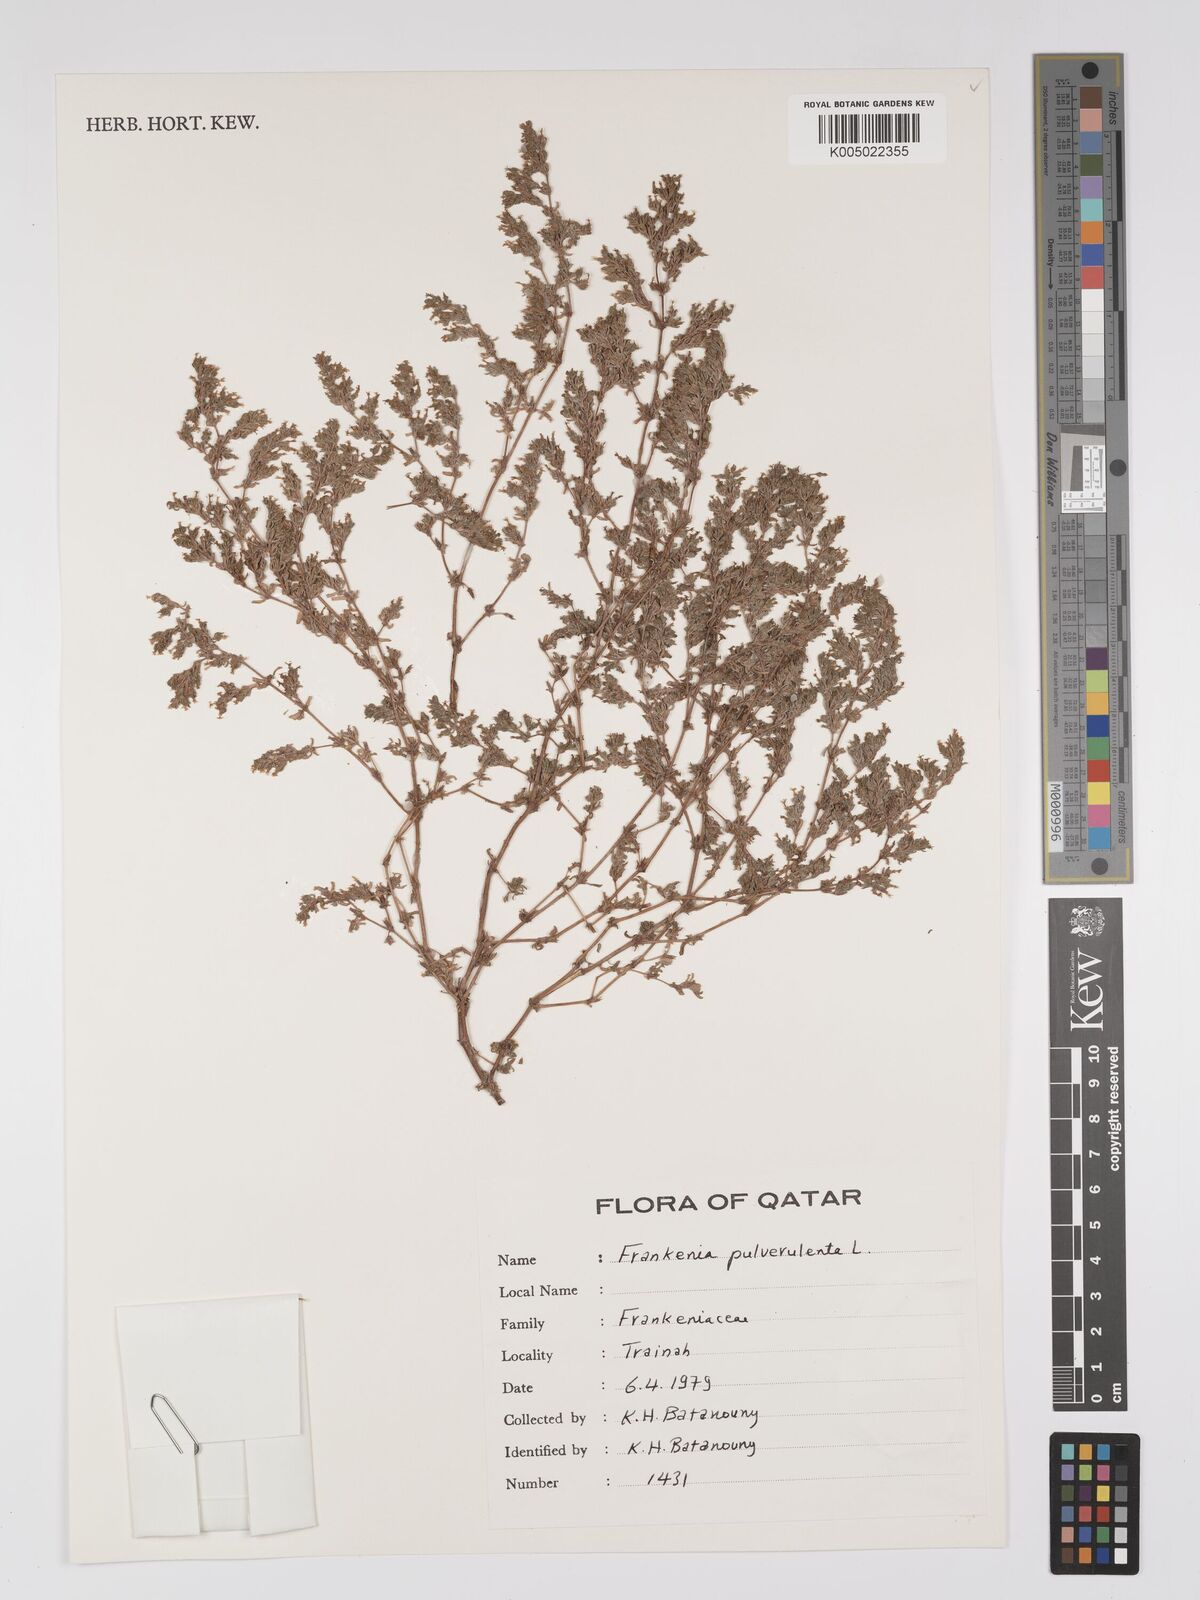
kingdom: Plantae
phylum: Tracheophyta
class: Magnoliopsida
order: Caryophyllales
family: Frankeniaceae
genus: Frankenia
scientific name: Frankenia pulverulenta
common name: European seaheath
